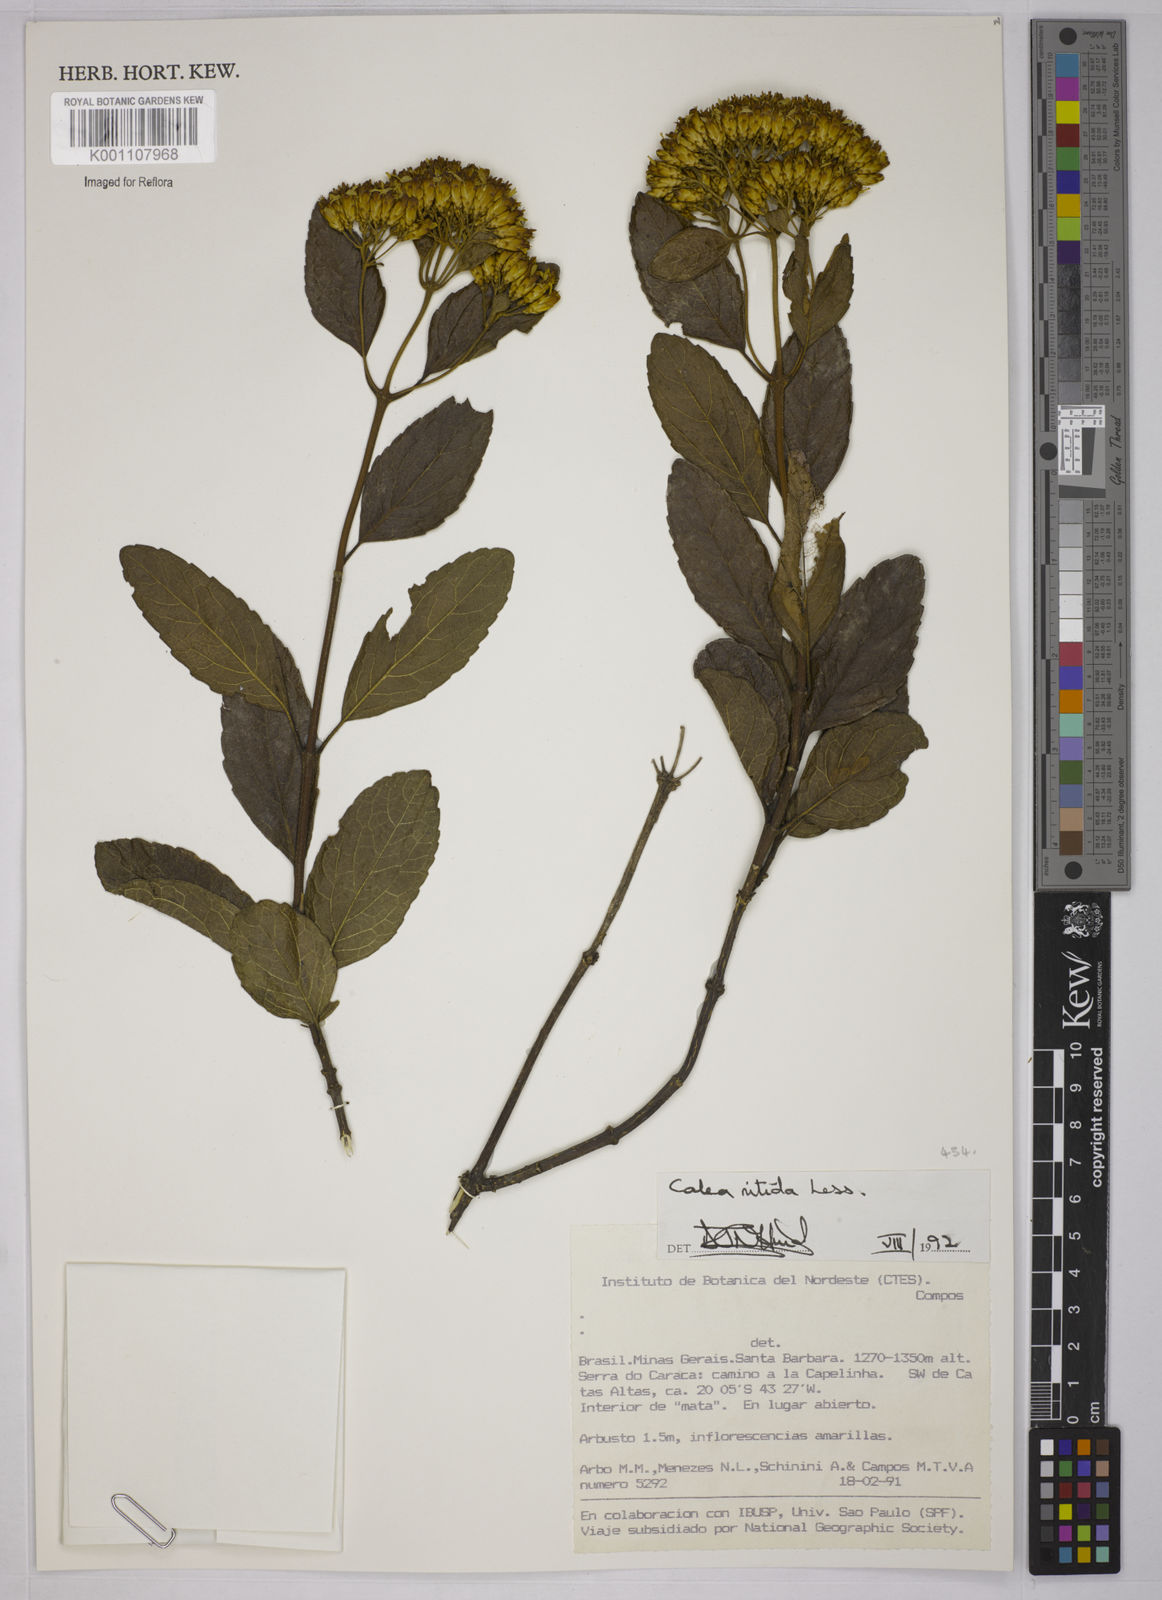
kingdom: Plantae
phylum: Tracheophyta
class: Magnoliopsida
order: Asterales
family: Asteraceae
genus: Calea
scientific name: Calea nitida
